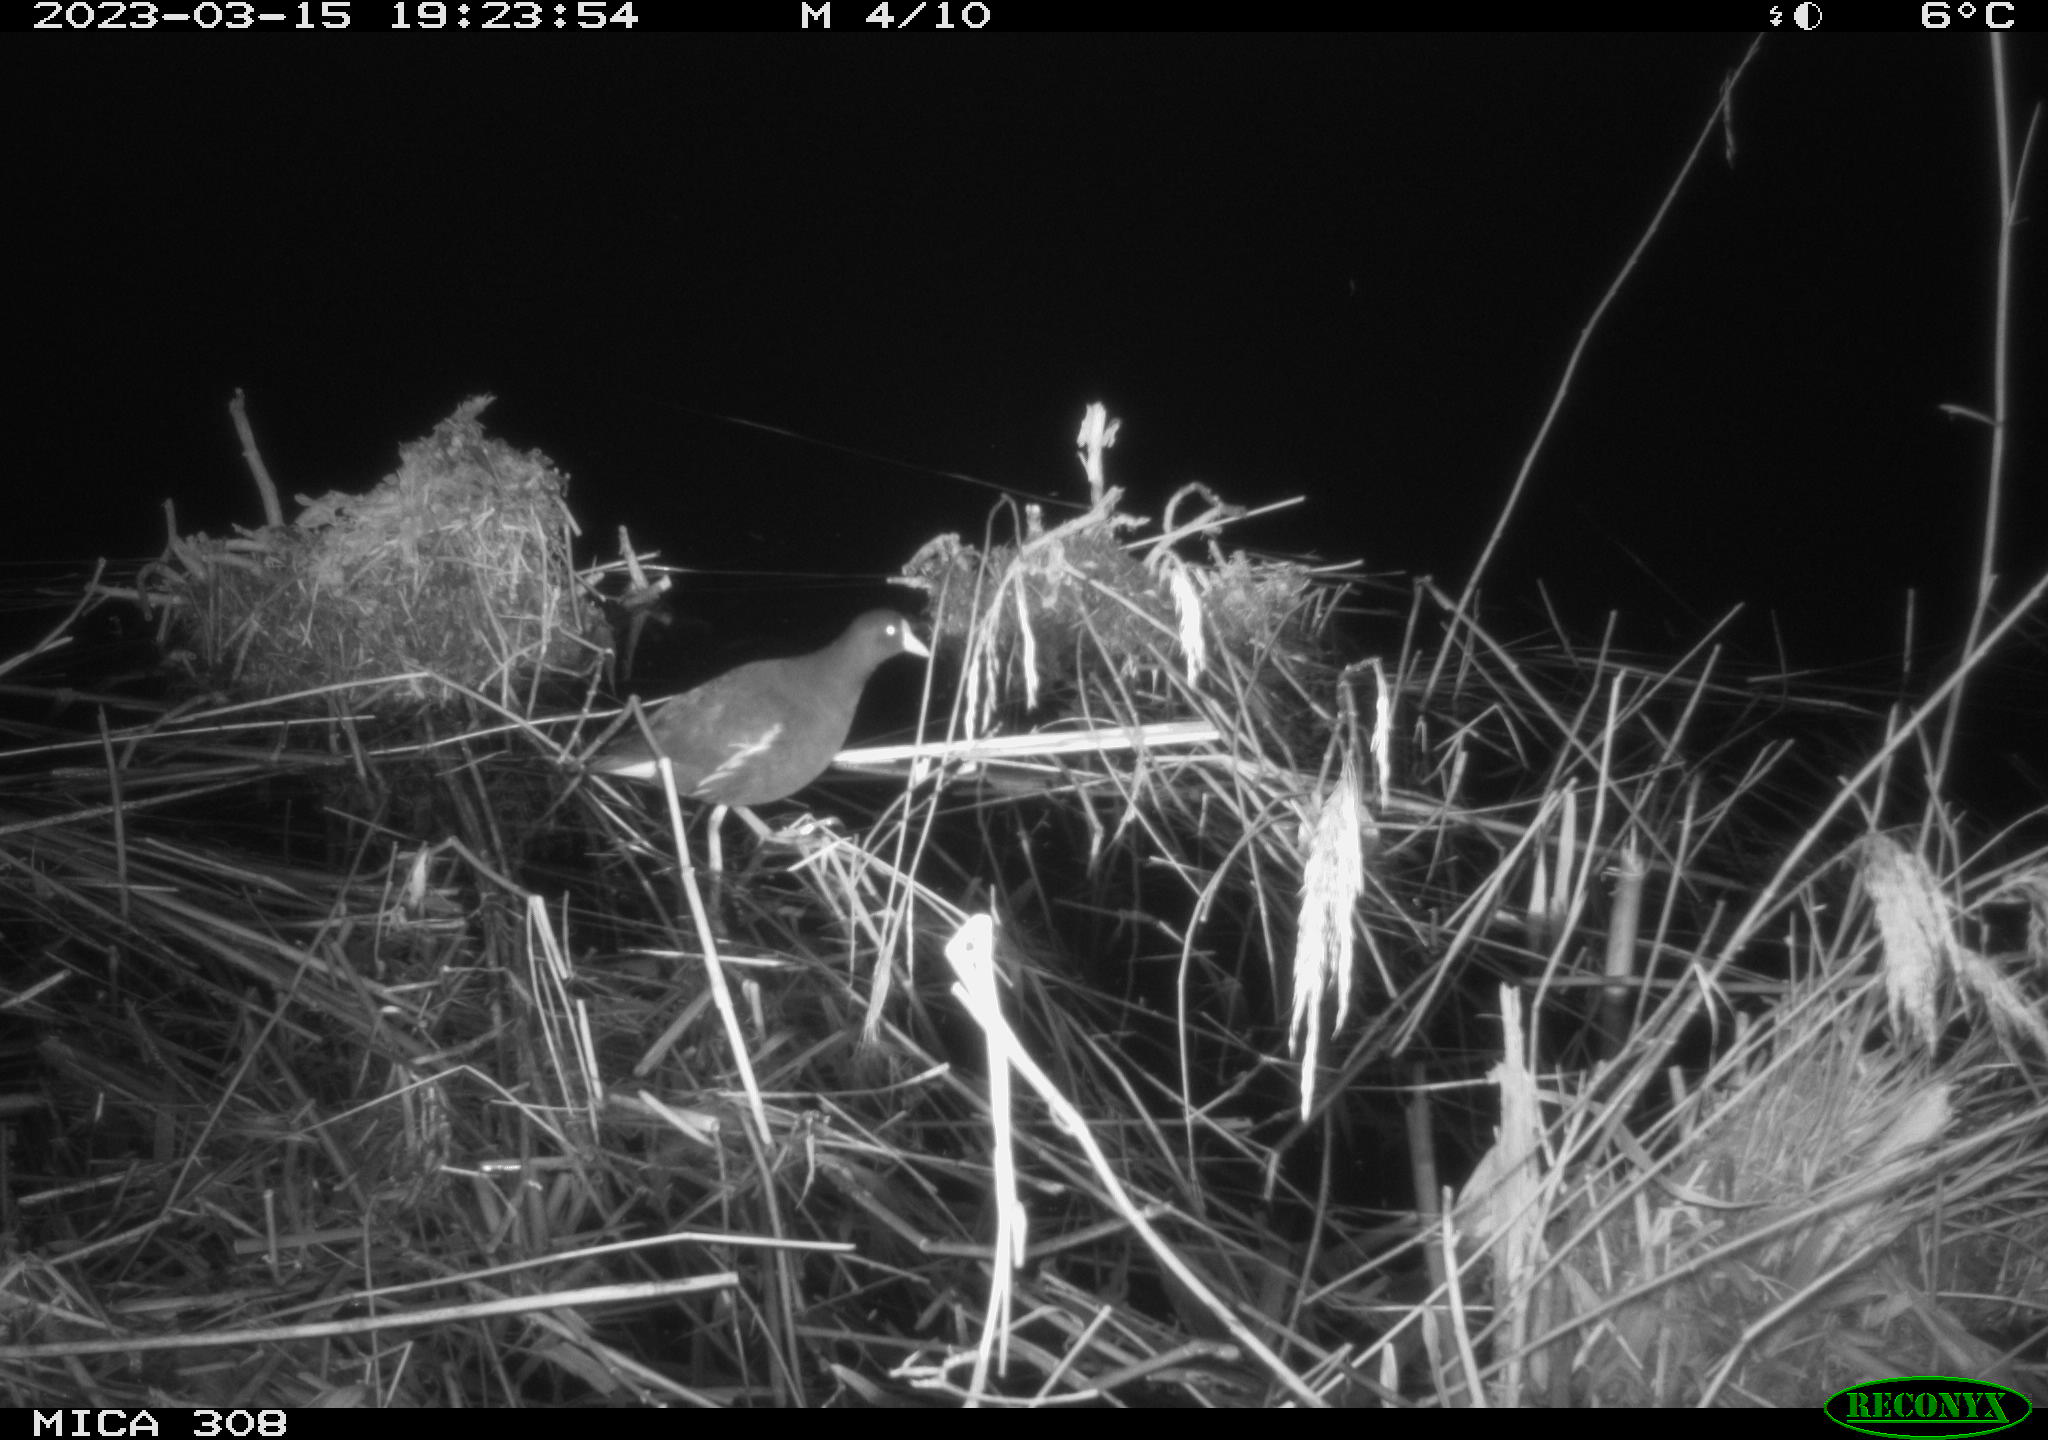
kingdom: Animalia
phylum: Chordata
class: Aves
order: Gruiformes
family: Rallidae
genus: Gallinula
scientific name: Gallinula chloropus
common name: Common moorhen
